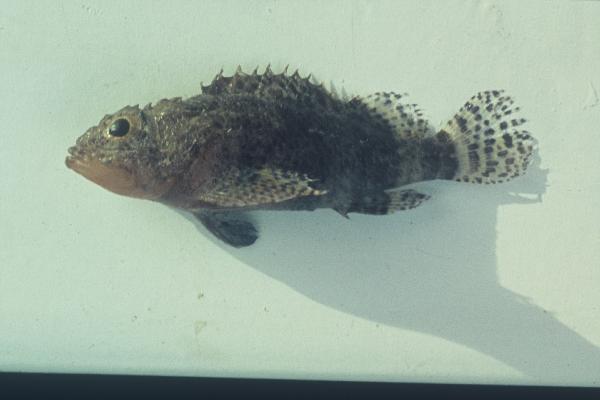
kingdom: Animalia
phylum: Chordata
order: Scorpaeniformes
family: Scorpaenidae
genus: Scorpaenodes
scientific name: Scorpaenodes kelloggi
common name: Dwarf scorpionfish
